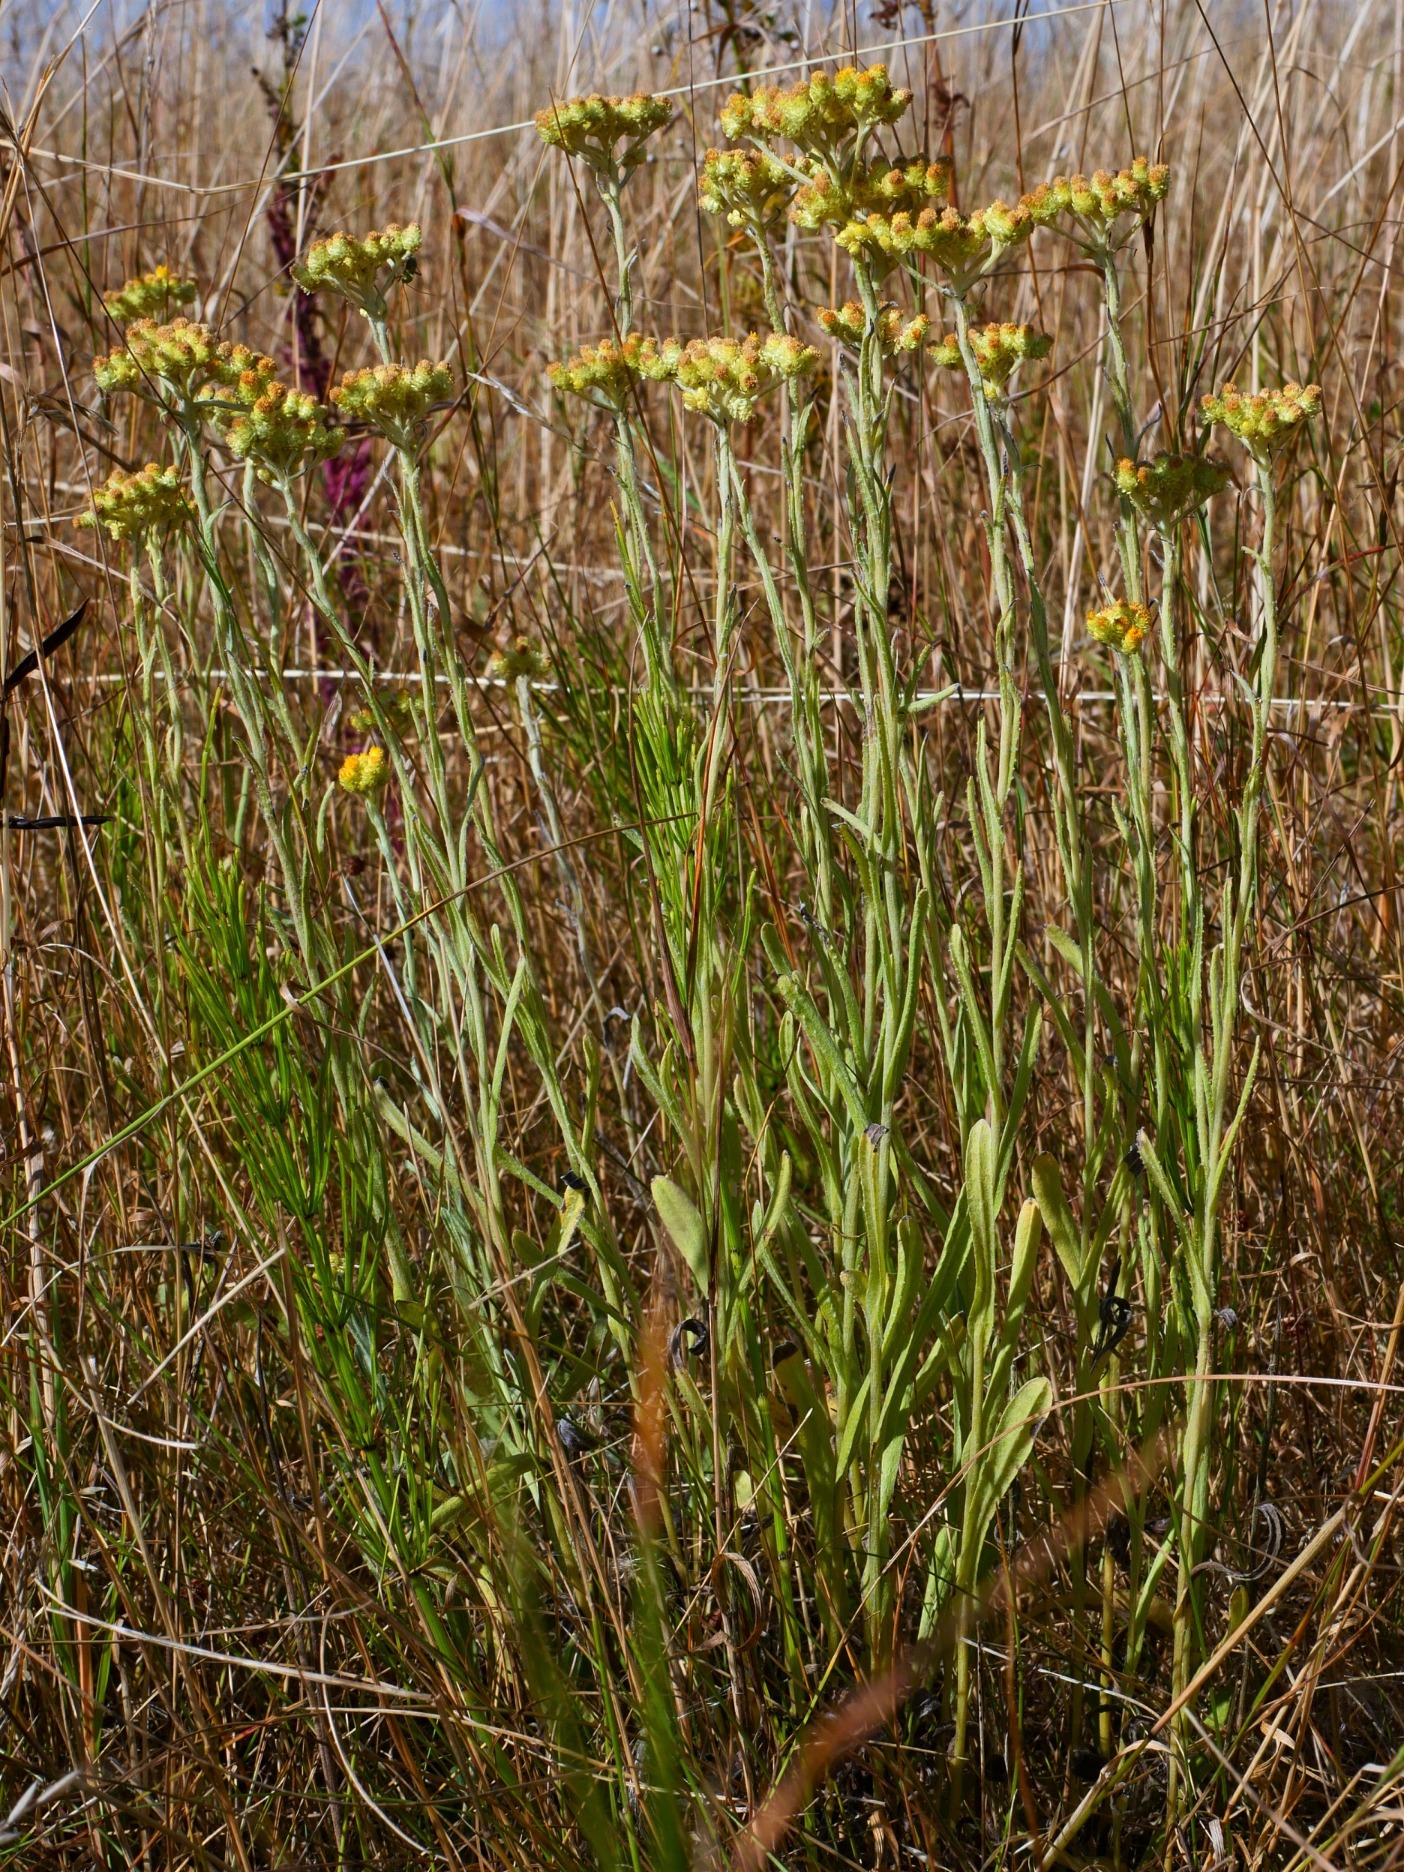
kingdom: Plantae
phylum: Tracheophyta
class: Magnoliopsida
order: Asterales
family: Asteraceae
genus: Helichrysum
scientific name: Helichrysum arenarium
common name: Gul evighedsblomst
